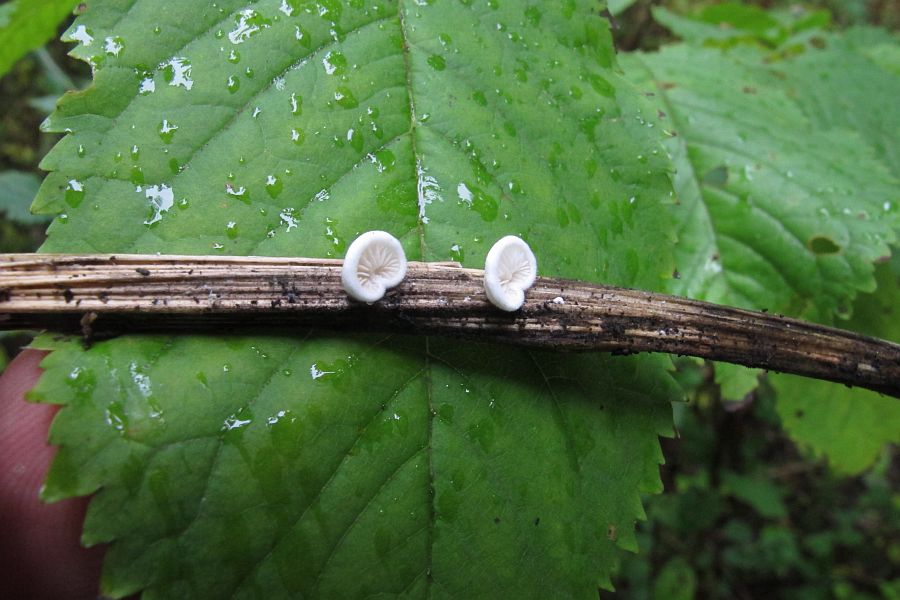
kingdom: Fungi
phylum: Basidiomycota
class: Agaricomycetes
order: Agaricales
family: Crepidotaceae
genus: Crepidotus
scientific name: Crepidotus variabilis
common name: forskelligformet muslingesvamp
